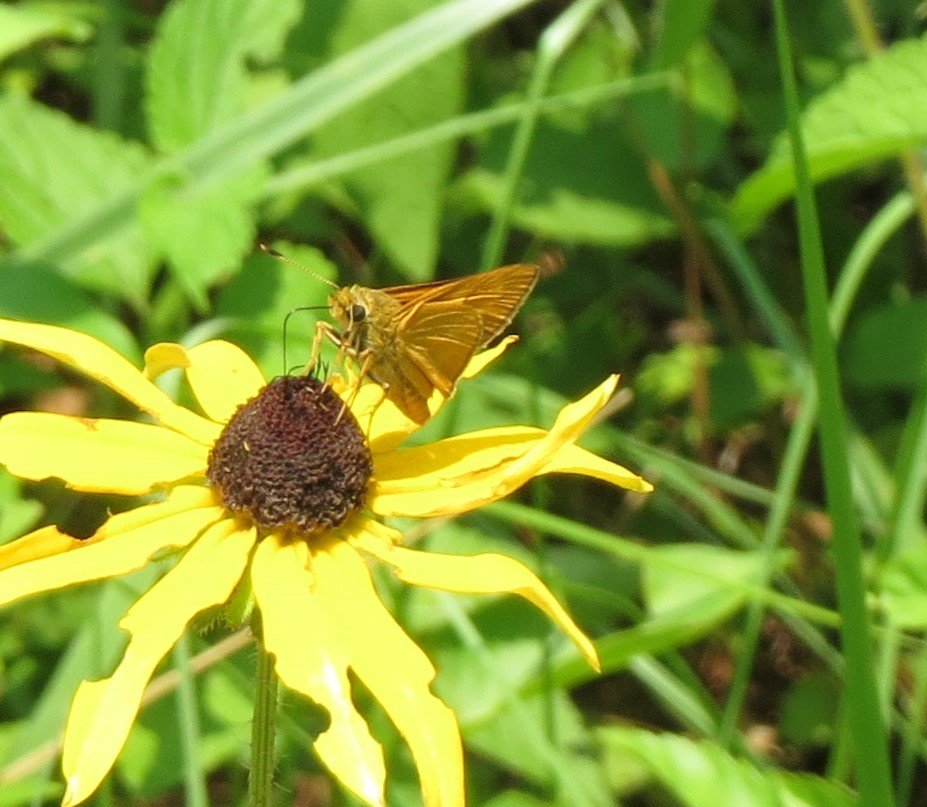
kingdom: Animalia
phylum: Arthropoda
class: Insecta
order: Lepidoptera
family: Hesperiidae
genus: Problema
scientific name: Problema byssus
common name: Byssus Skipper
